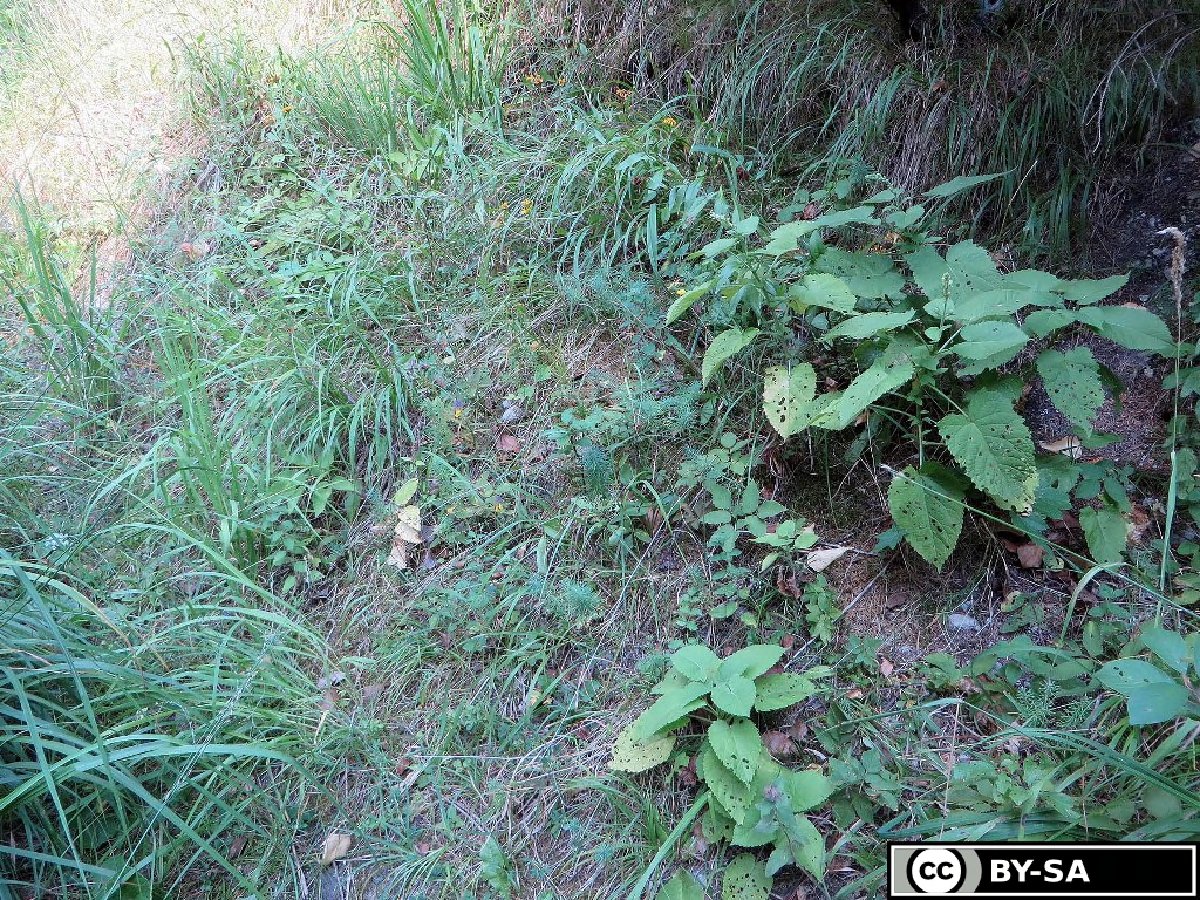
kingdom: Plantae
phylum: Tracheophyta
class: Magnoliopsida
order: Lamiales
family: Orobanchaceae
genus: Melampyrum
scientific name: Melampyrum subalpinum
